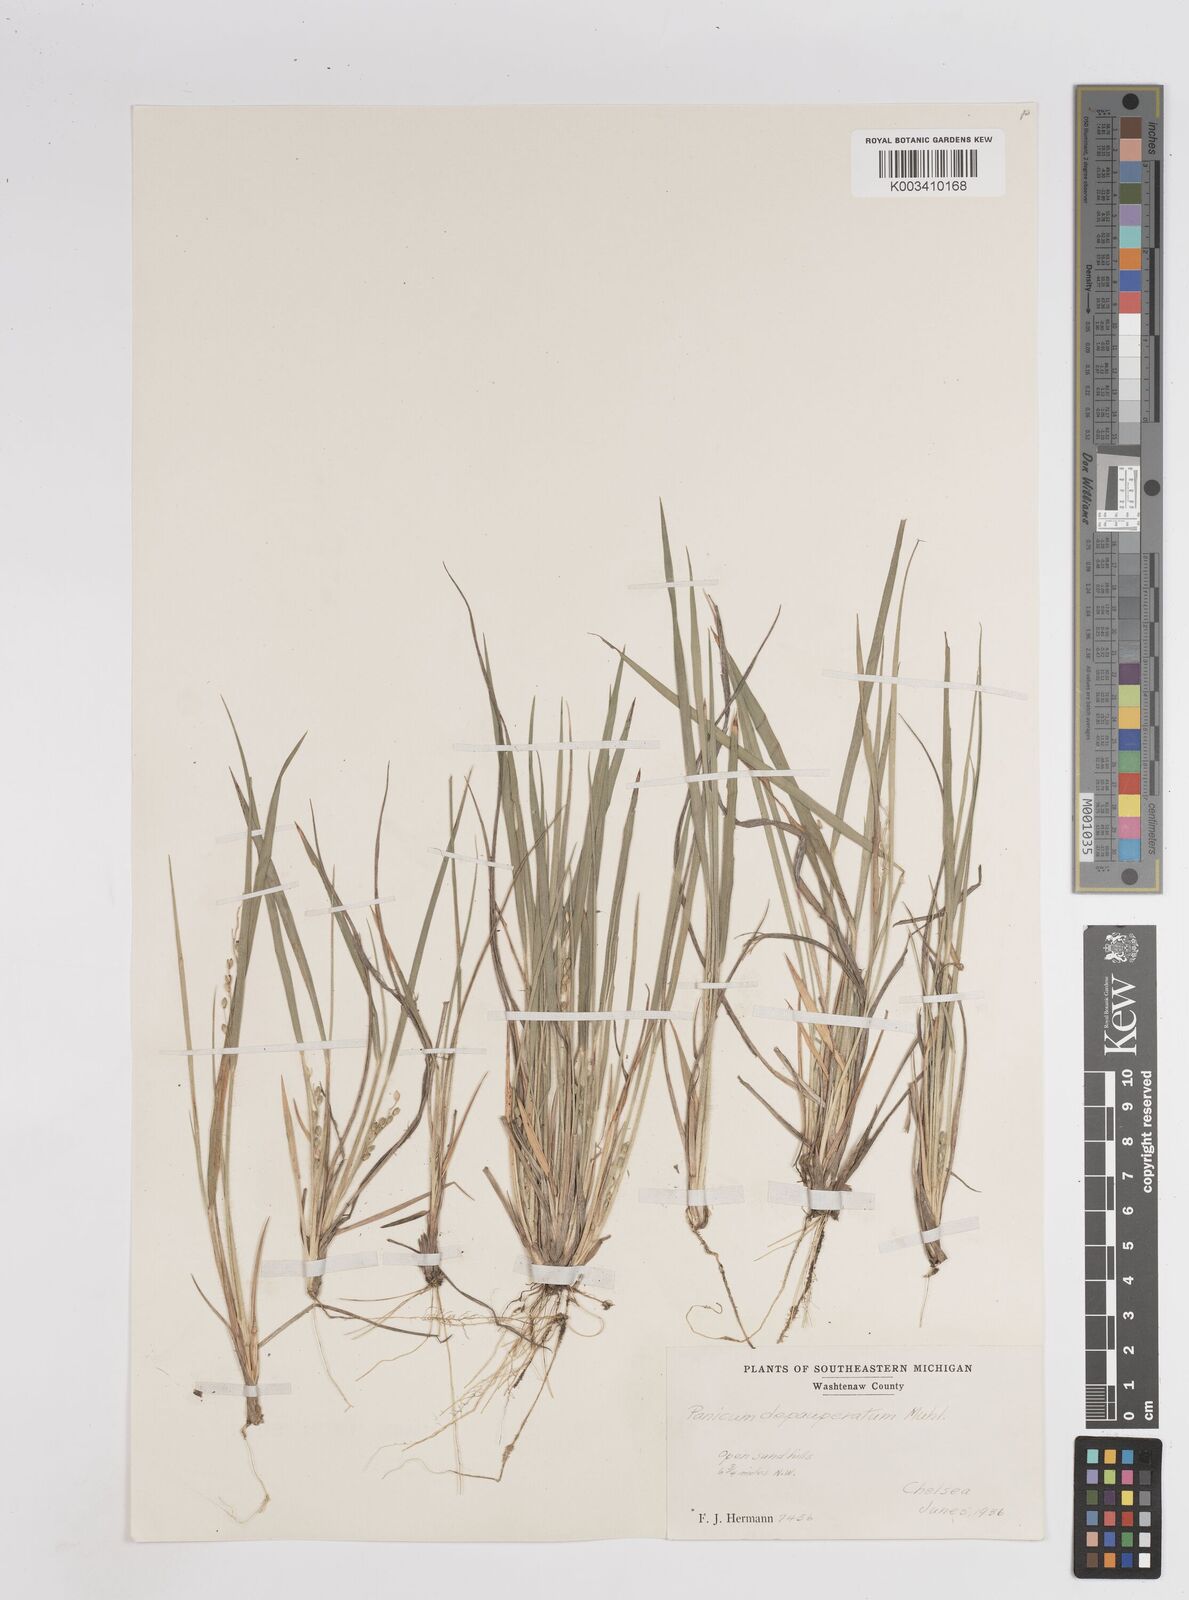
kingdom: Plantae
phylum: Tracheophyta
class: Liliopsida
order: Poales
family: Poaceae
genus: Dichanthelium
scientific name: Dichanthelium depauperatum
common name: Depauperate panicgrass
